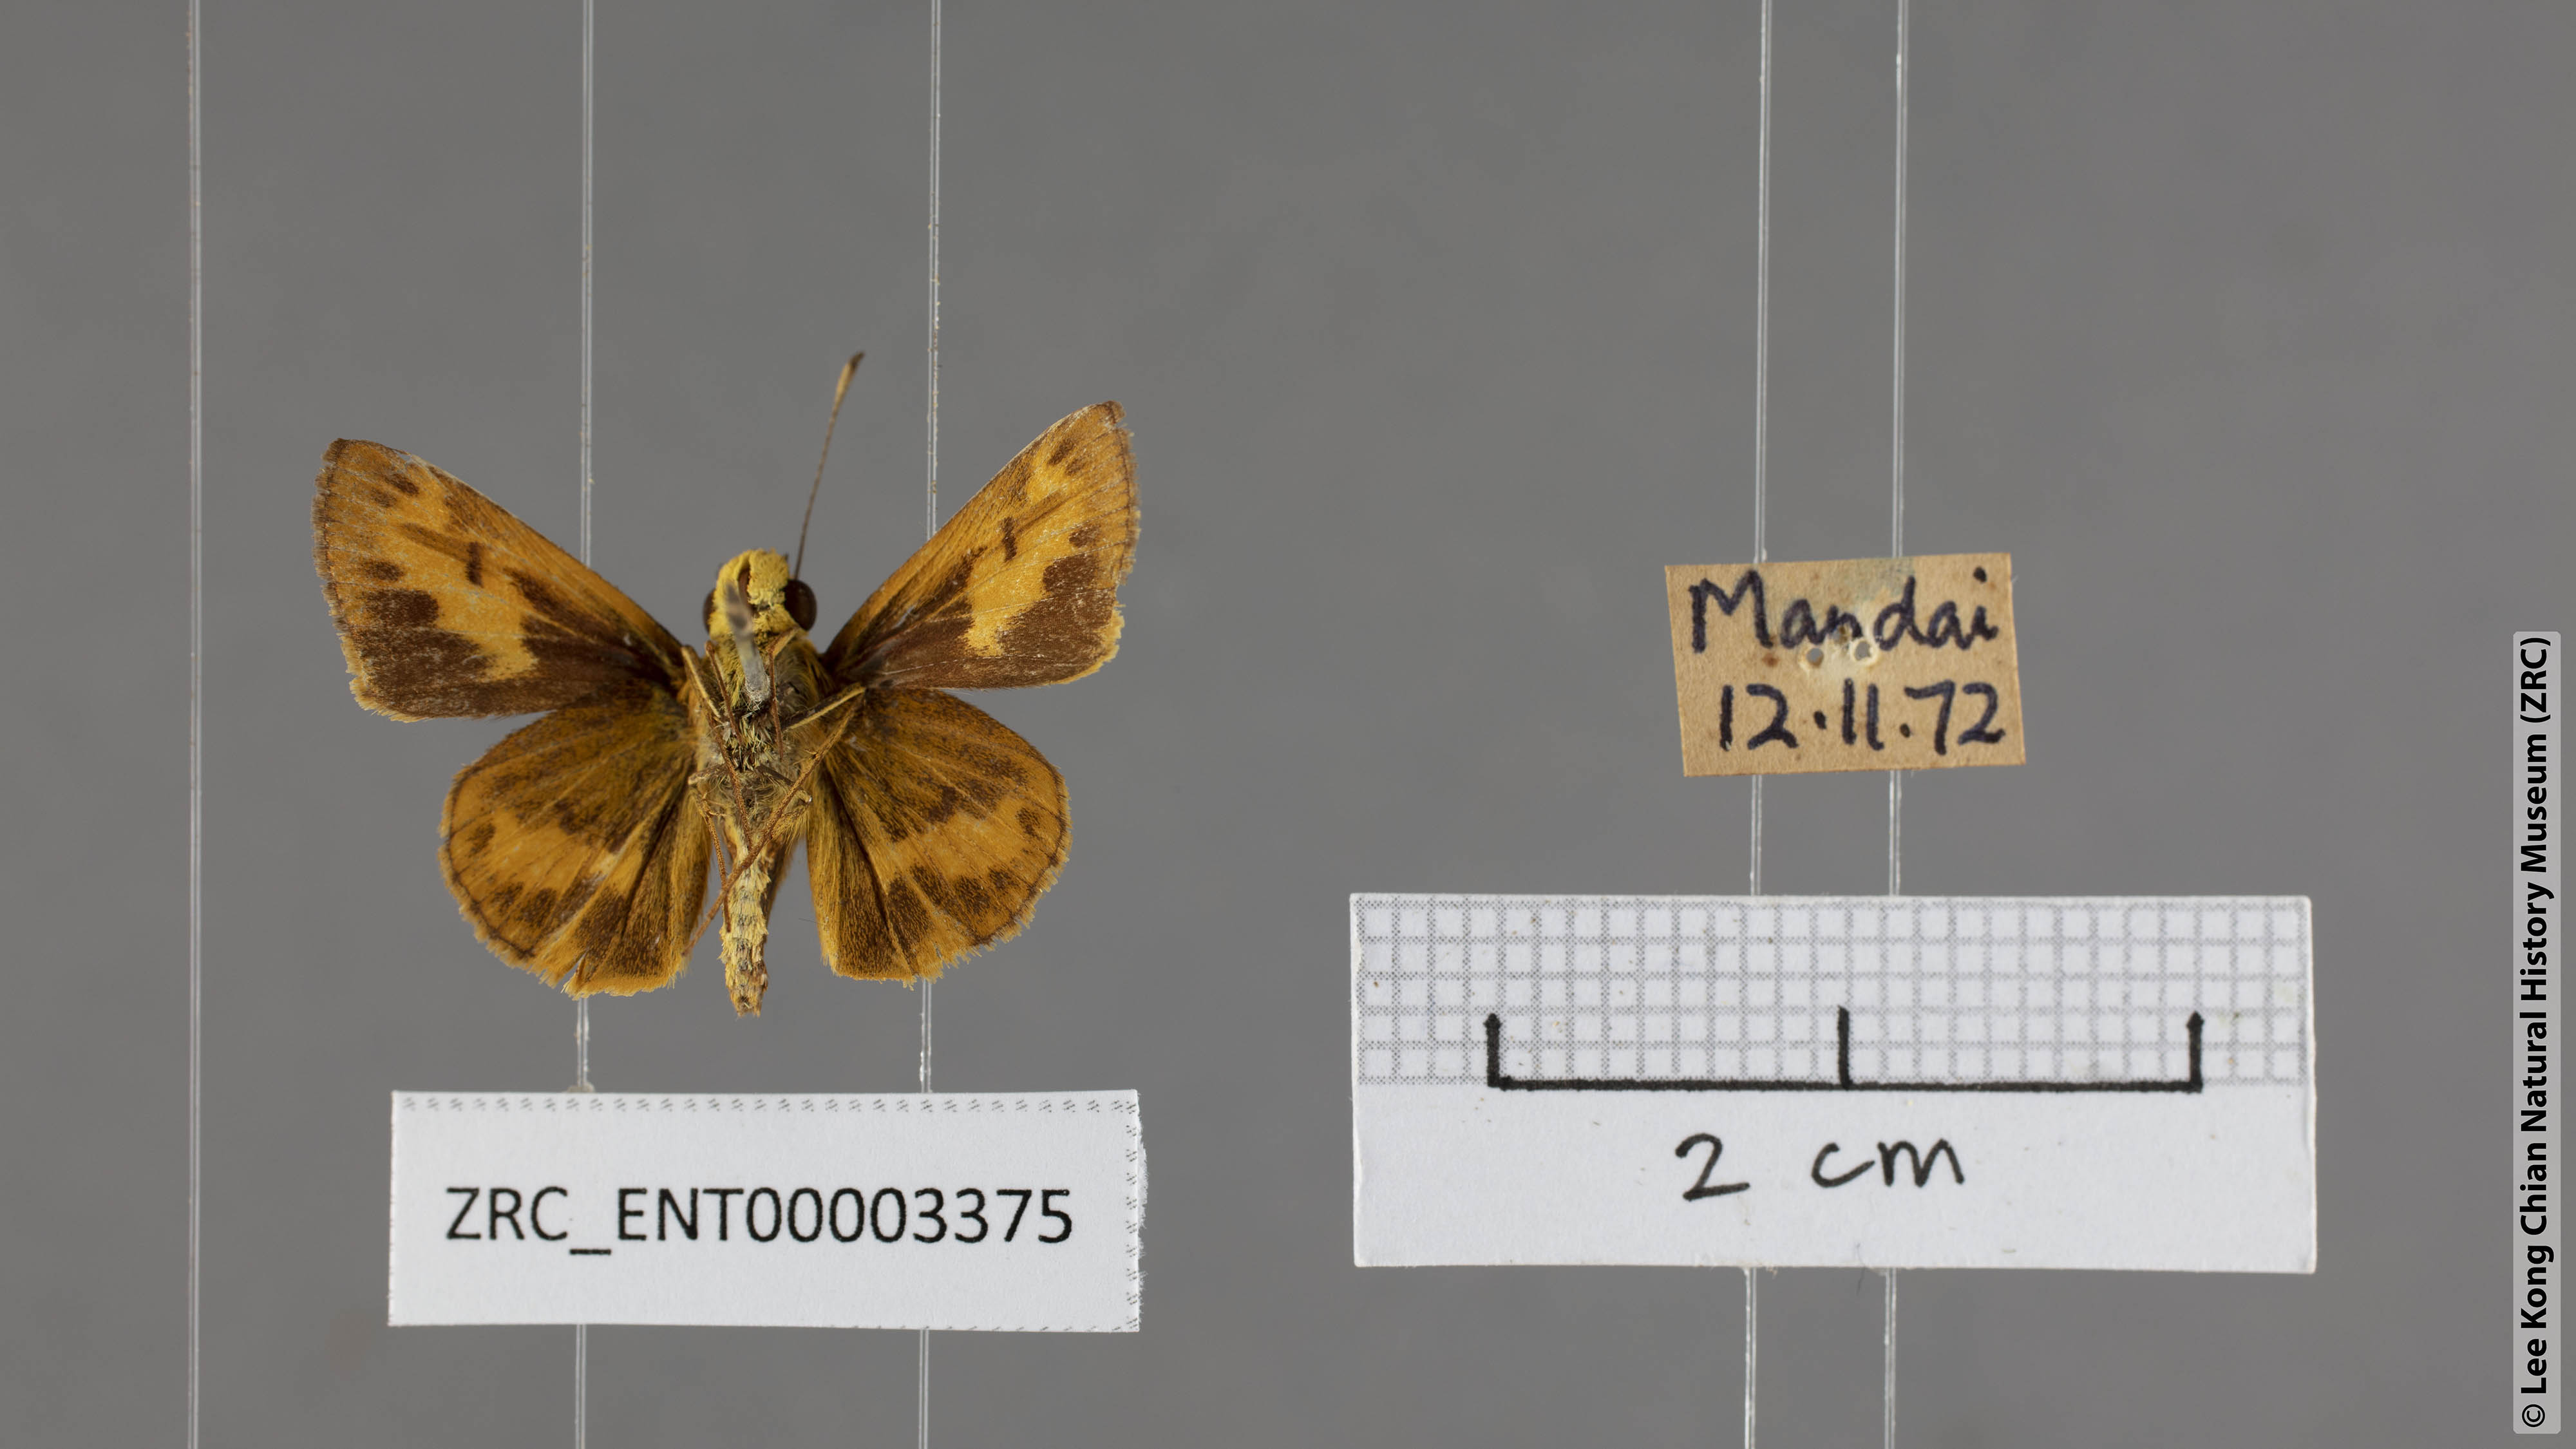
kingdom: Animalia
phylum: Arthropoda
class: Insecta
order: Lepidoptera
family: Hesperiidae
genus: Oriens
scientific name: Oriens gola
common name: Common dartlet
